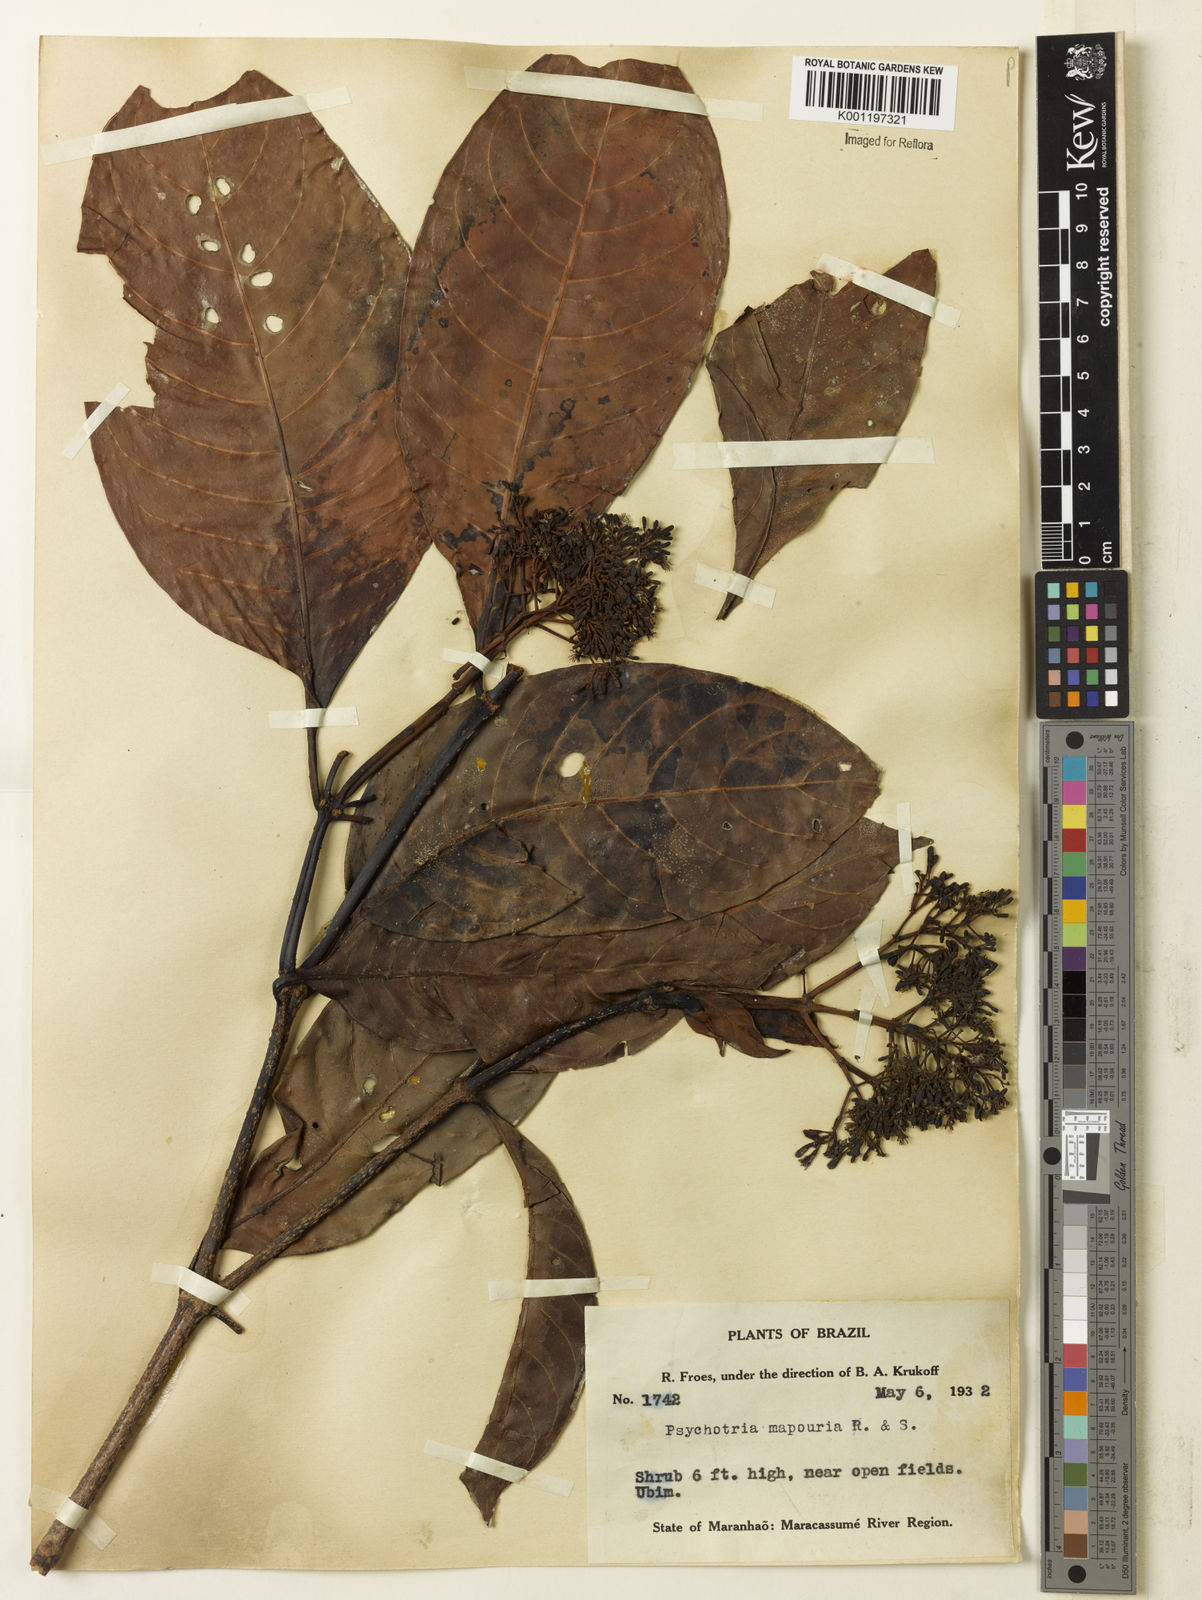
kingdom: Plantae
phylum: Tracheophyta
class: Magnoliopsida
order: Gentianales
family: Rubiaceae
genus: Psychotria
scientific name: Psychotria pedunculosa
